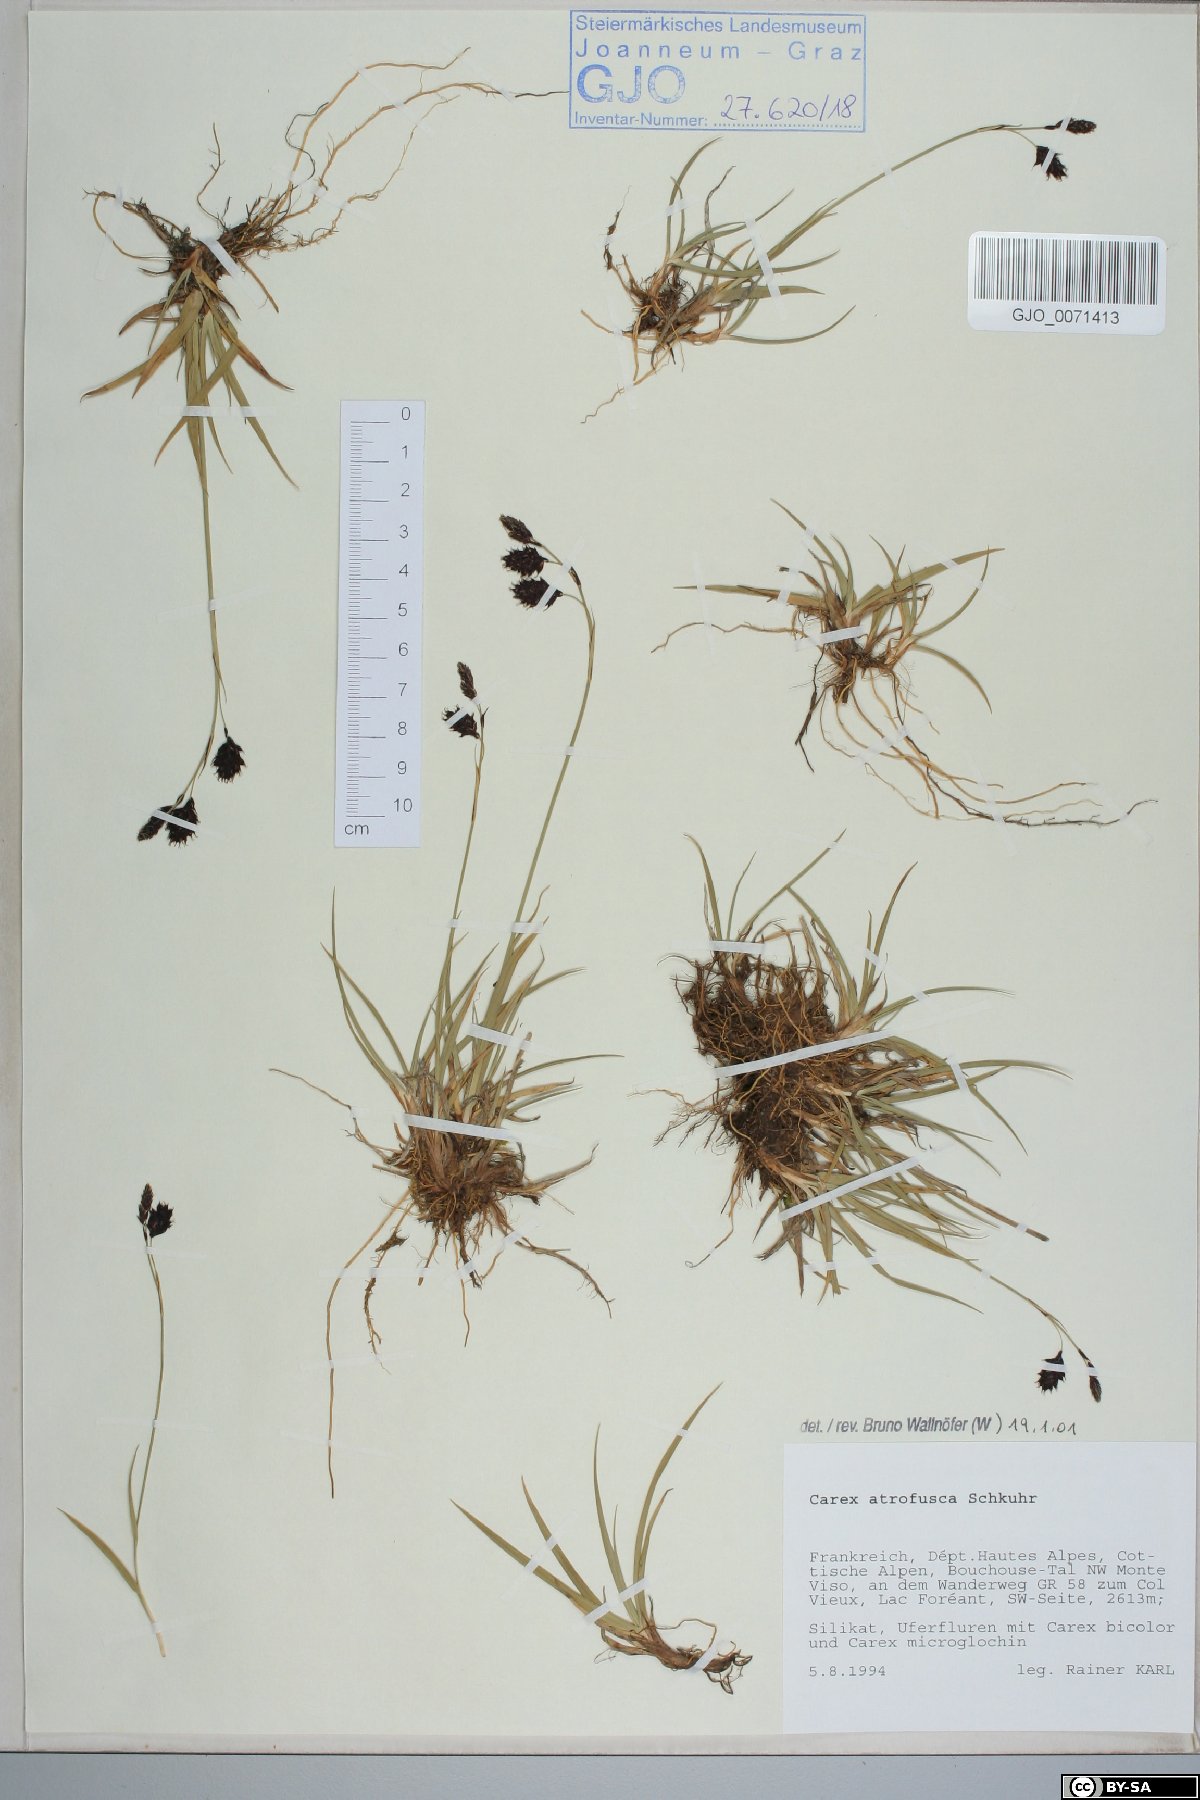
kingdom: Plantae
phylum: Tracheophyta
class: Liliopsida
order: Poales
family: Cyperaceae
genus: Carex
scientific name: Carex atrofusca
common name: Scorched alpine-sedge
